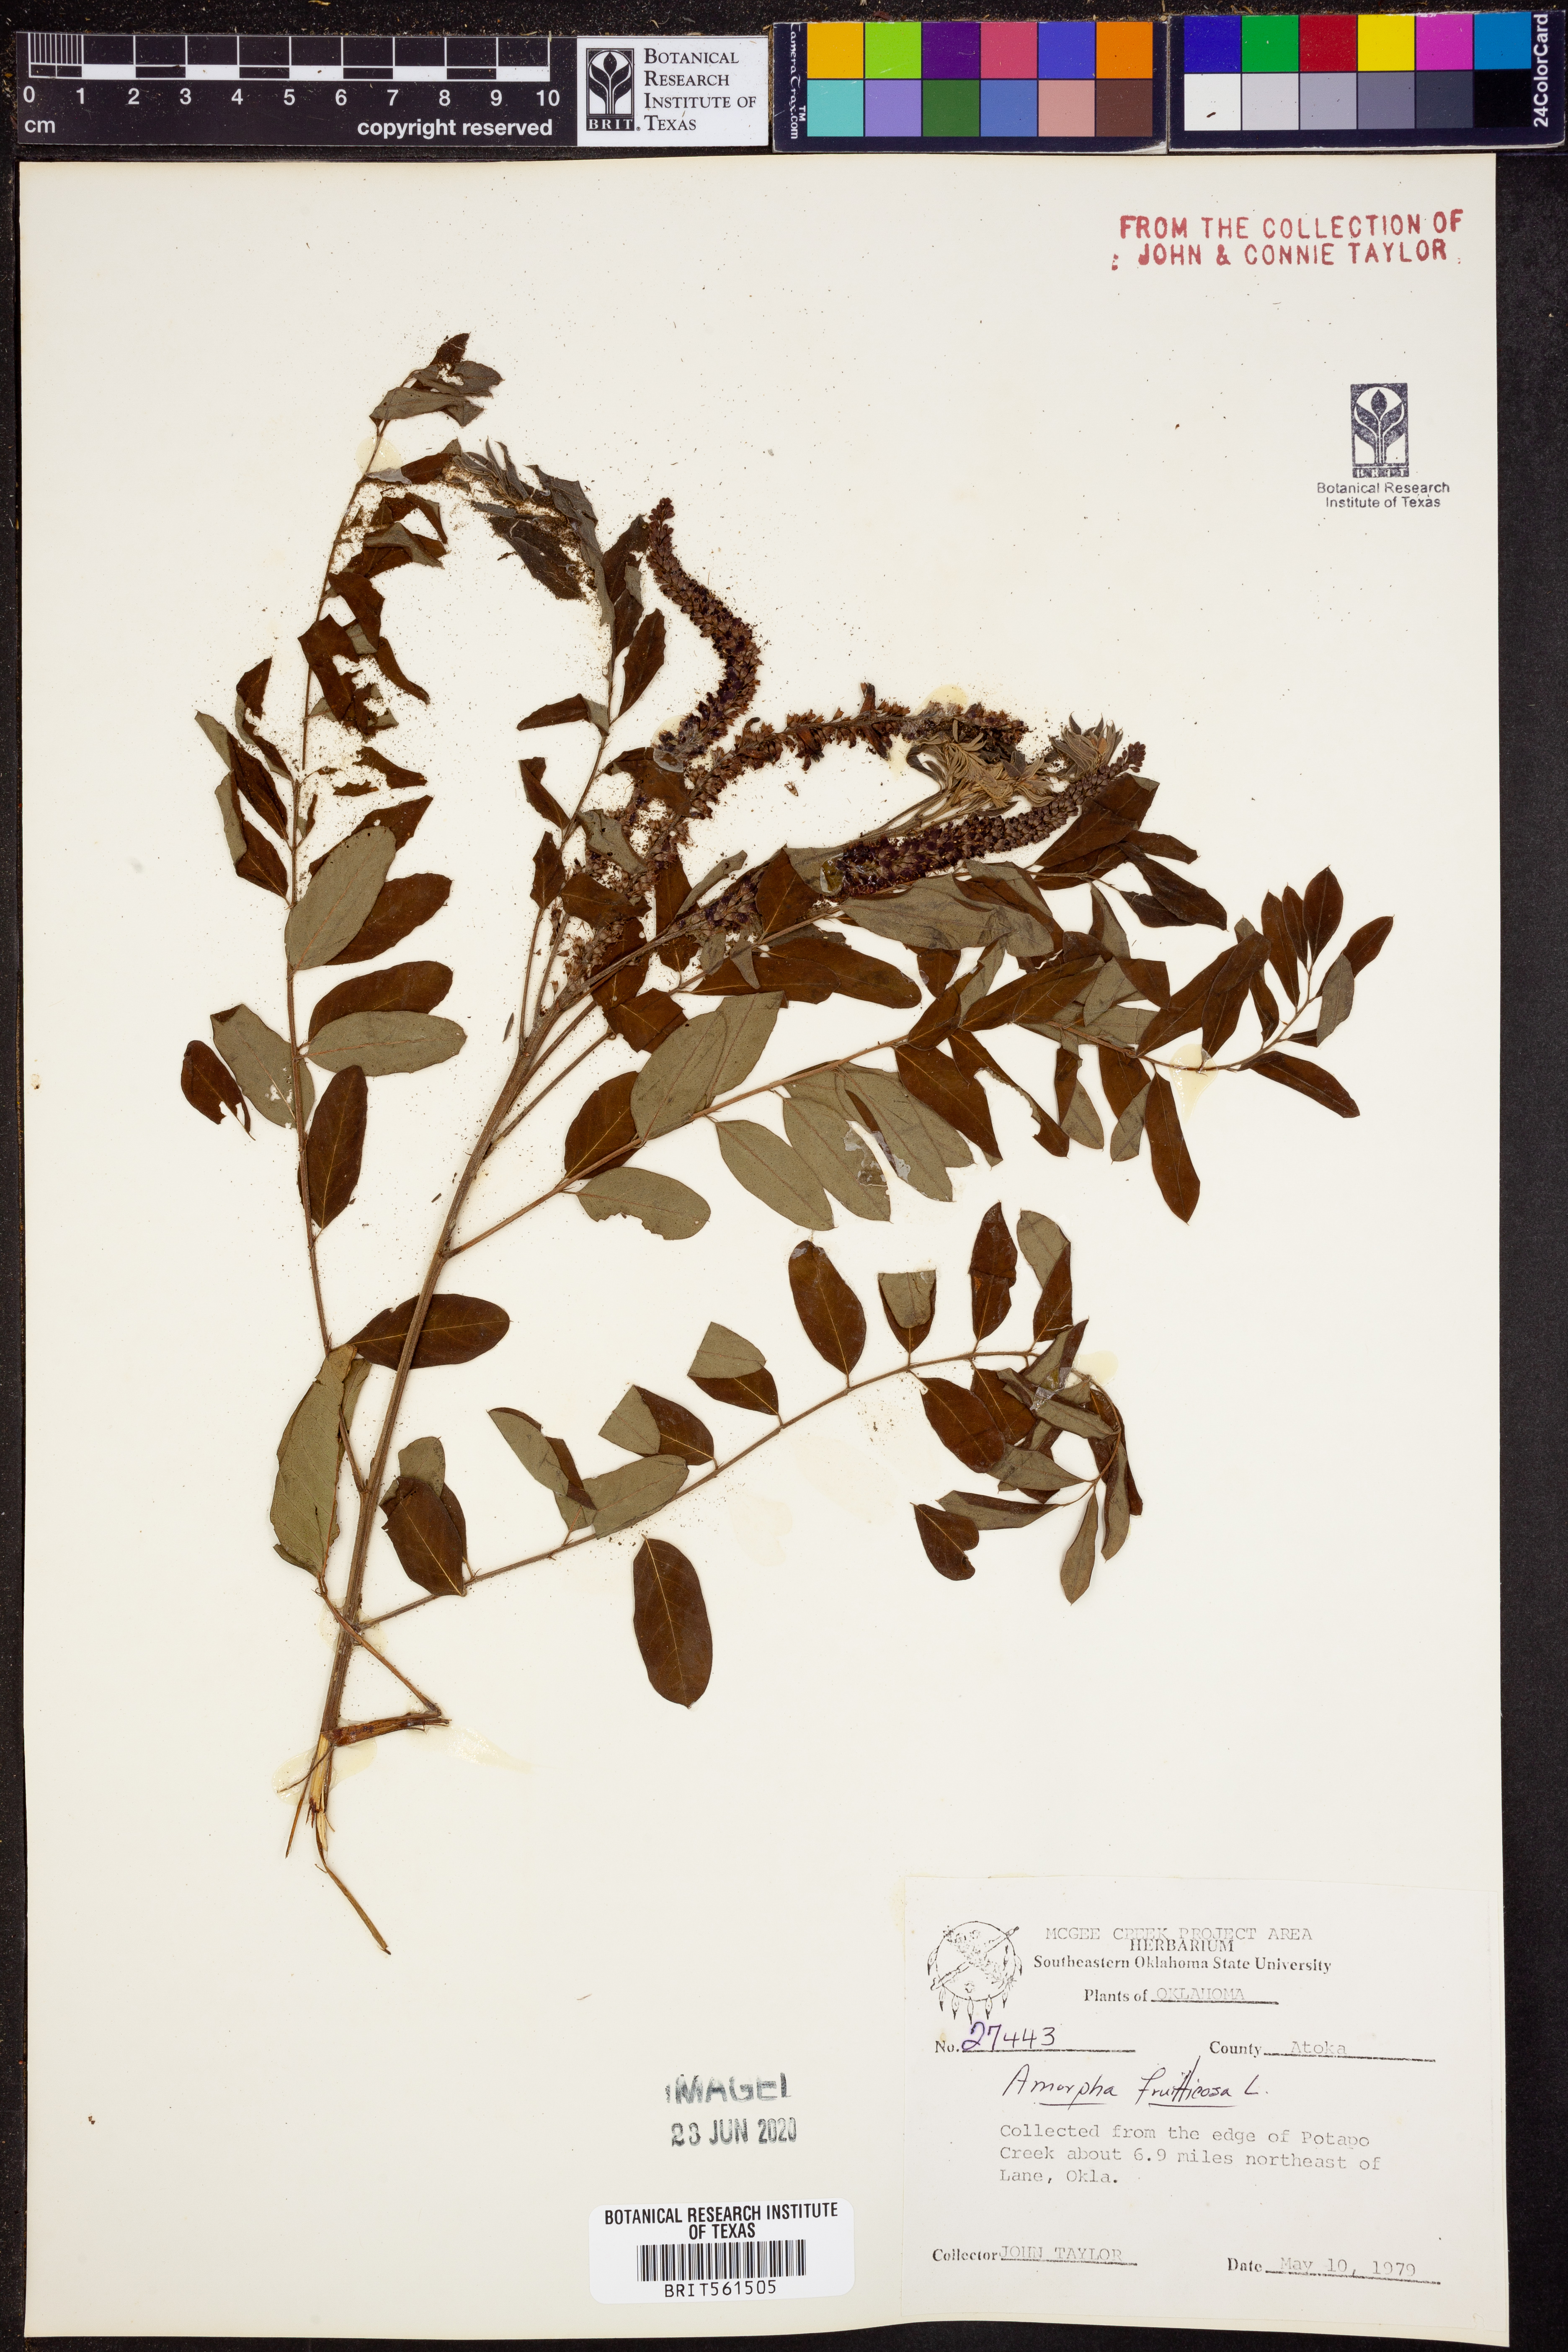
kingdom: Plantae
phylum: Tracheophyta
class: Magnoliopsida
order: Fabales
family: Fabaceae
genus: Amorpha
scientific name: Amorpha fruticosa
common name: False indigo
